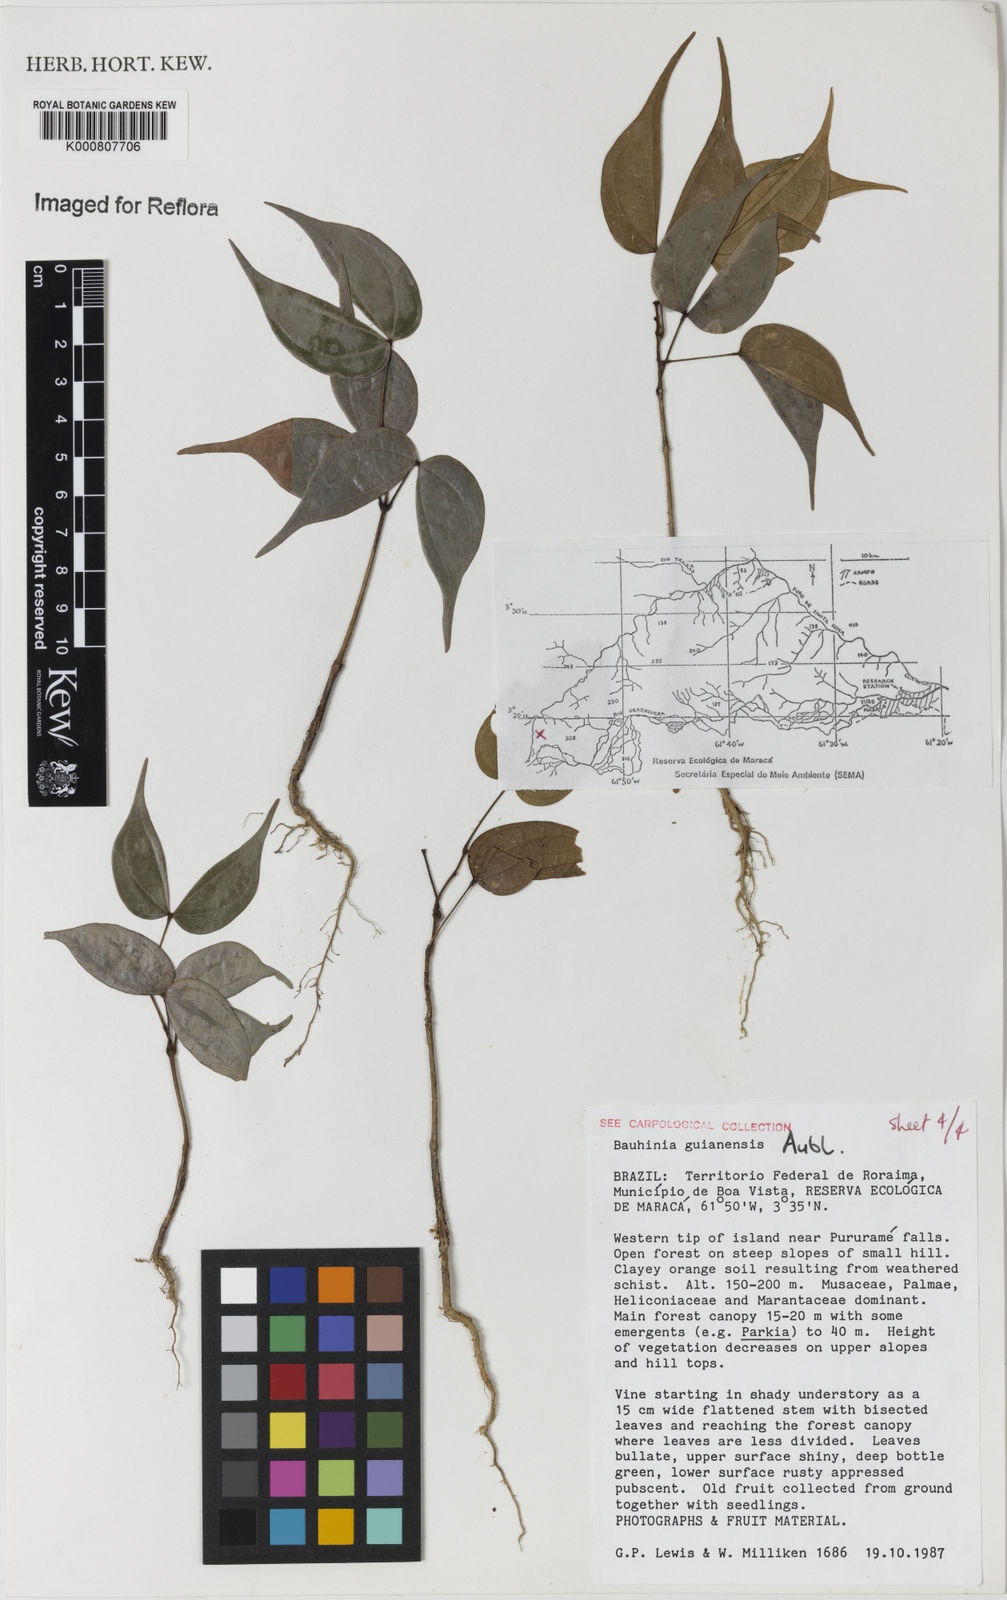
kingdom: Plantae
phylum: Tracheophyta
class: Magnoliopsida
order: Fabales
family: Fabaceae
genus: Schnella
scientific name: Schnella guianensis
